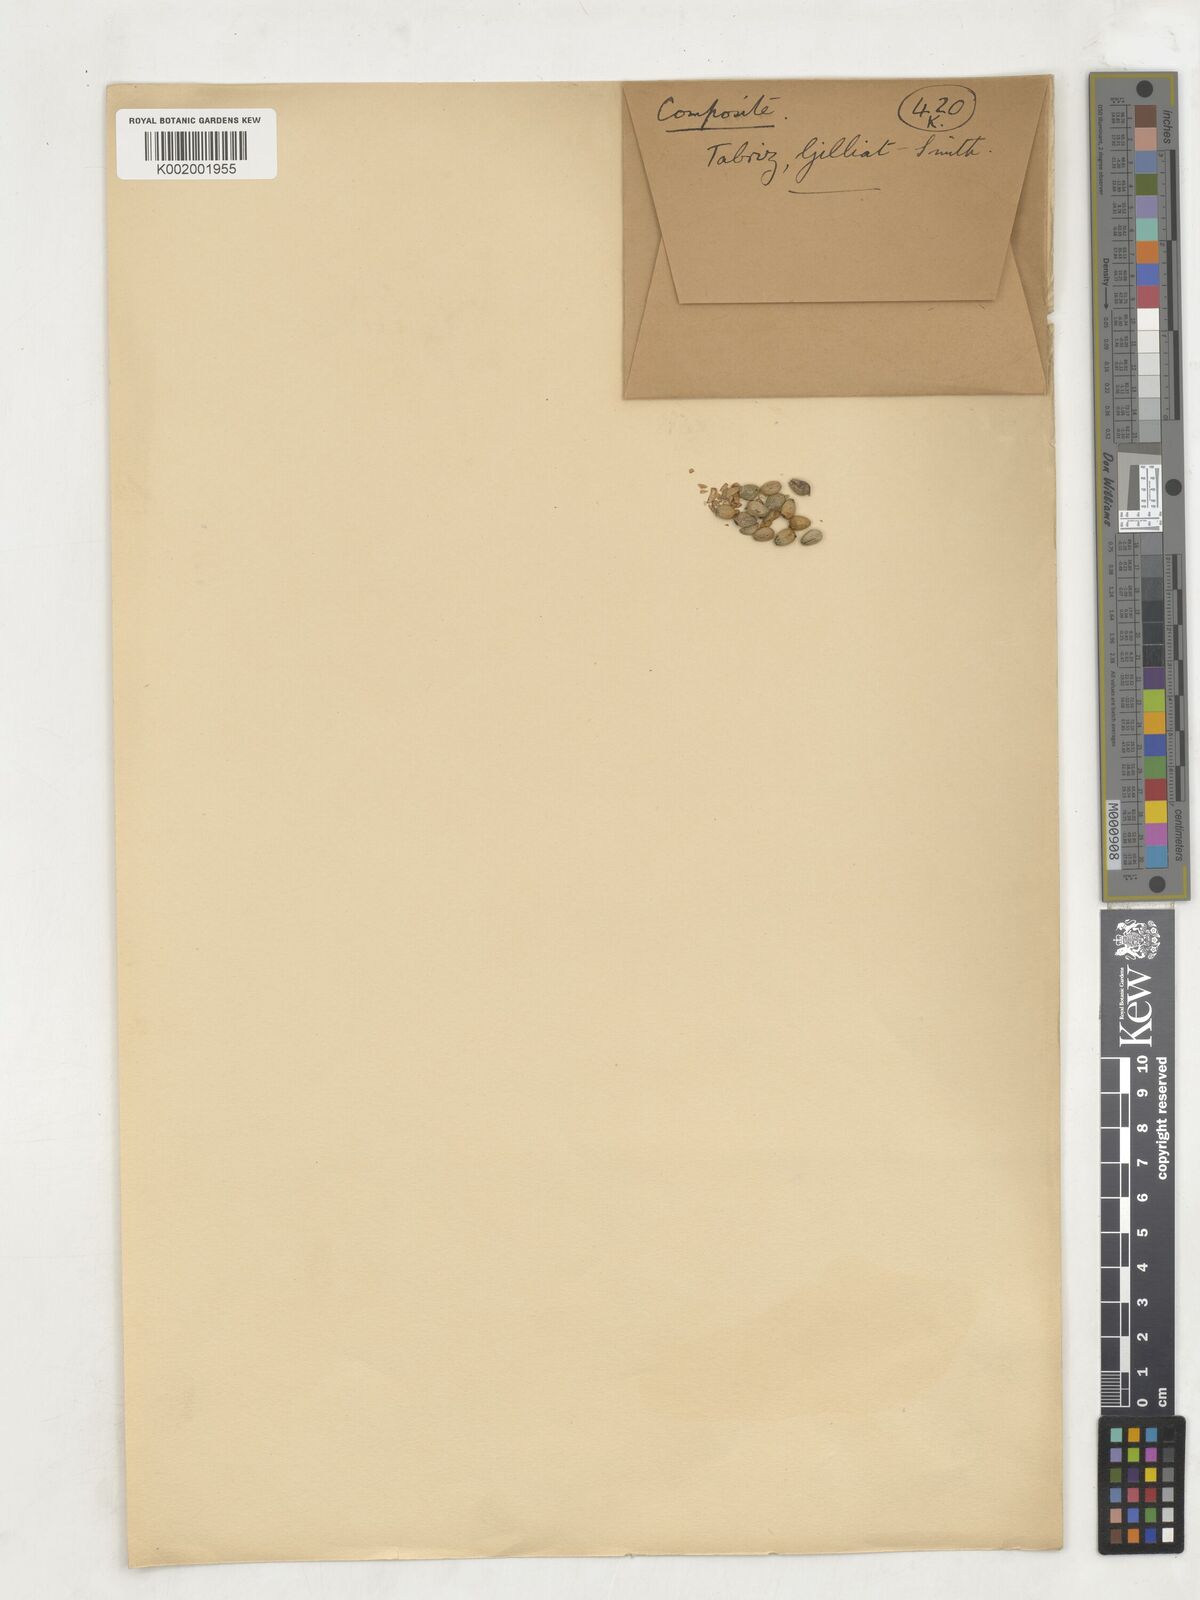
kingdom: Plantae
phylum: Tracheophyta
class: Magnoliopsida
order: Asterales
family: Asteraceae
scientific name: Asteraceae
